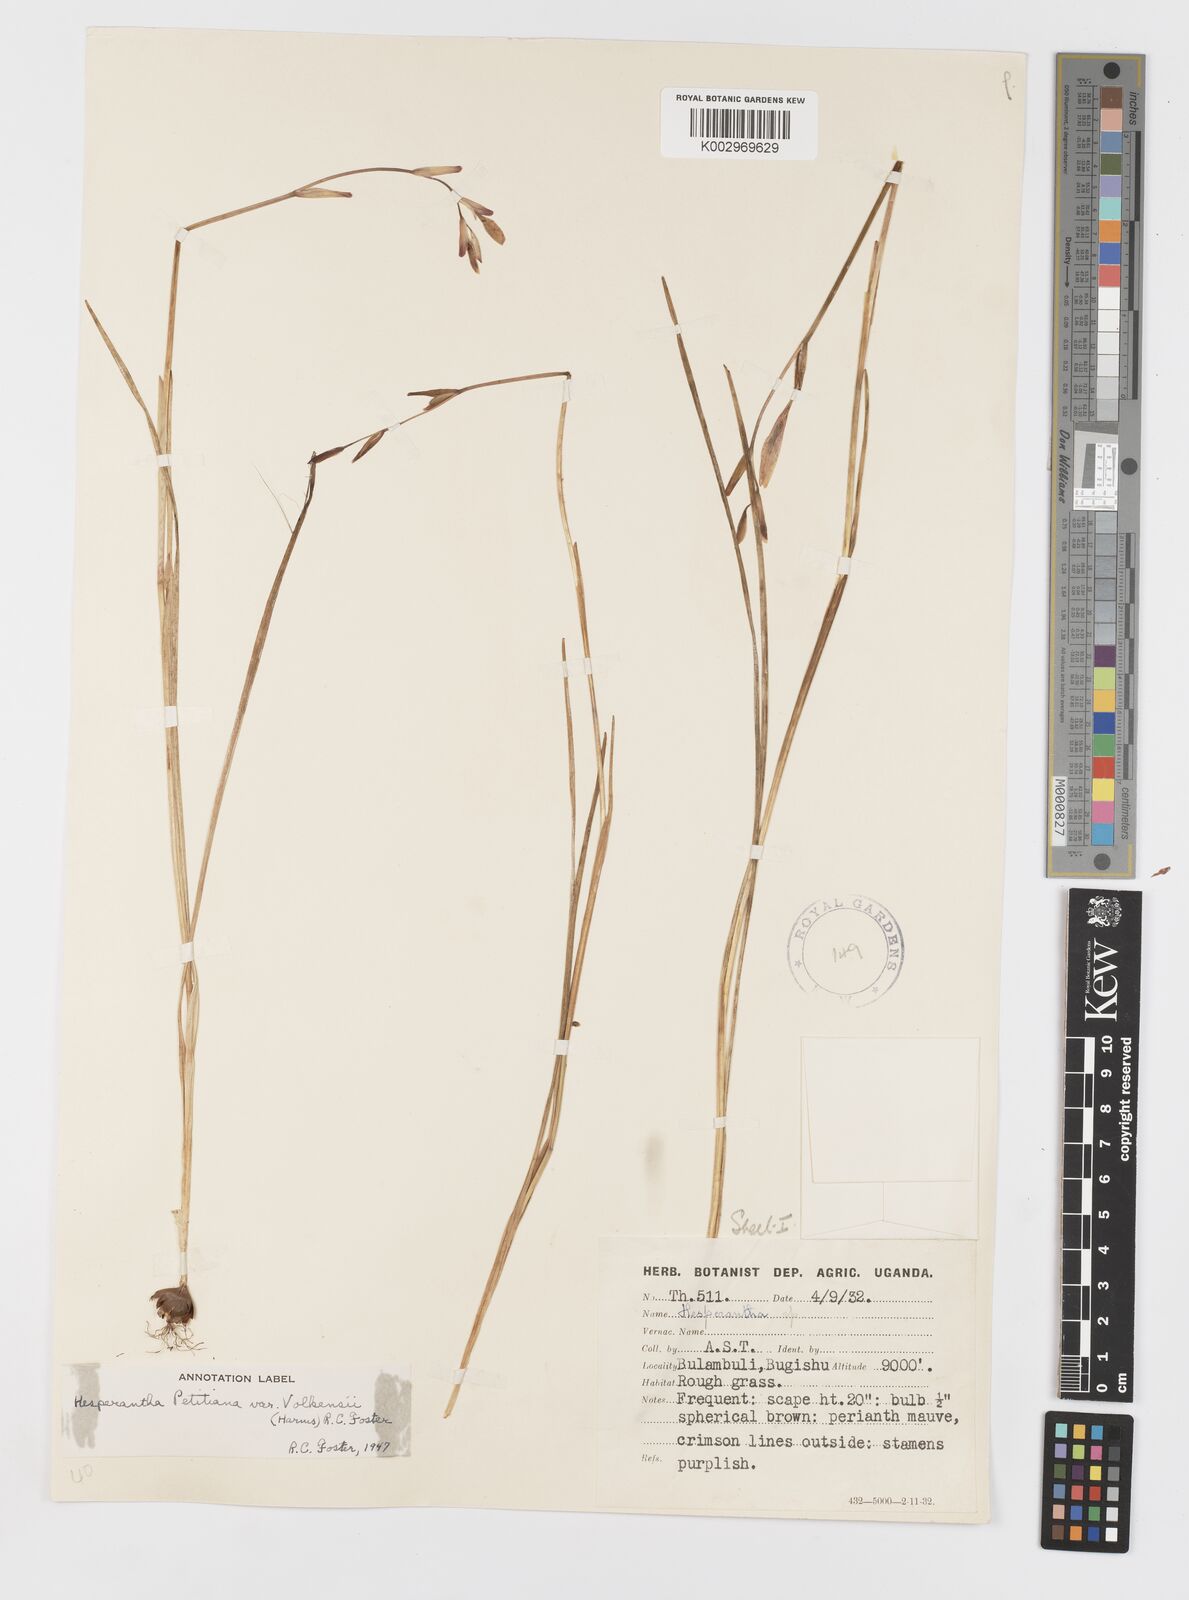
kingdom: Plantae
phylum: Tracheophyta
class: Liliopsida
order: Asparagales
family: Iridaceae
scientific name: Iridaceae
